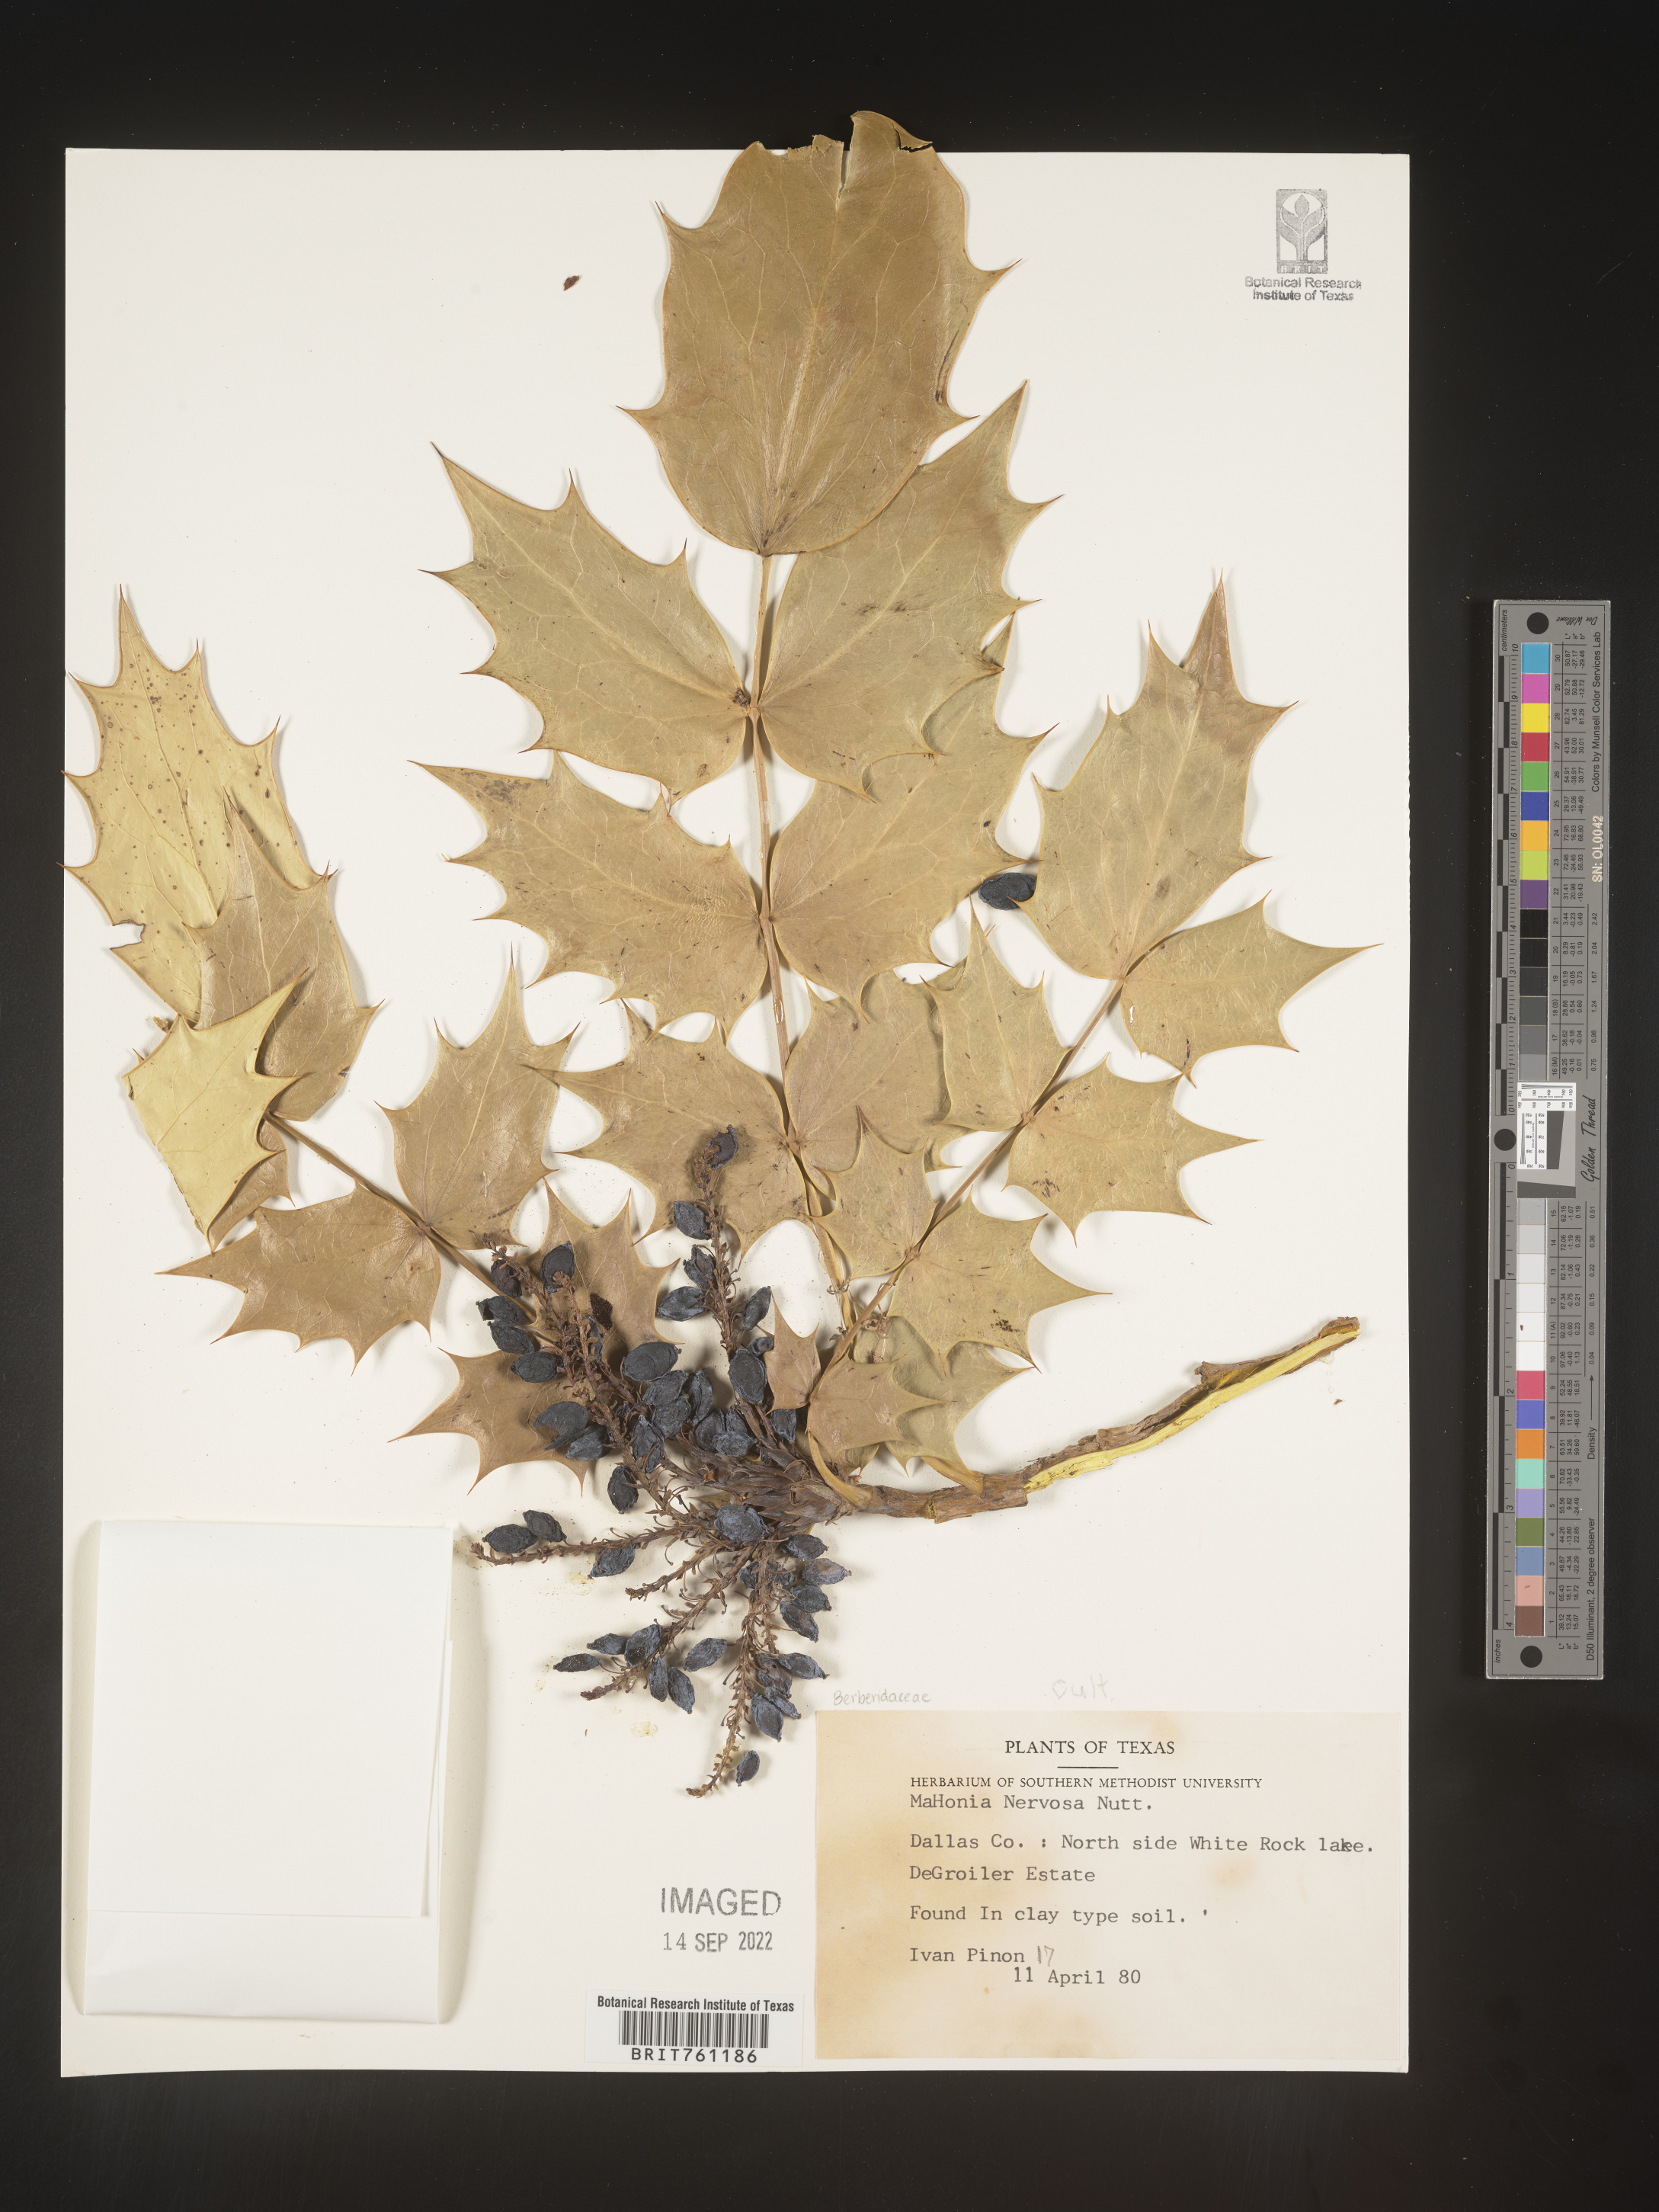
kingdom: Plantae
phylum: Tracheophyta
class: Magnoliopsida
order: Ranunculales
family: Berberidaceae
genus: Mahonia
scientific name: Mahonia
